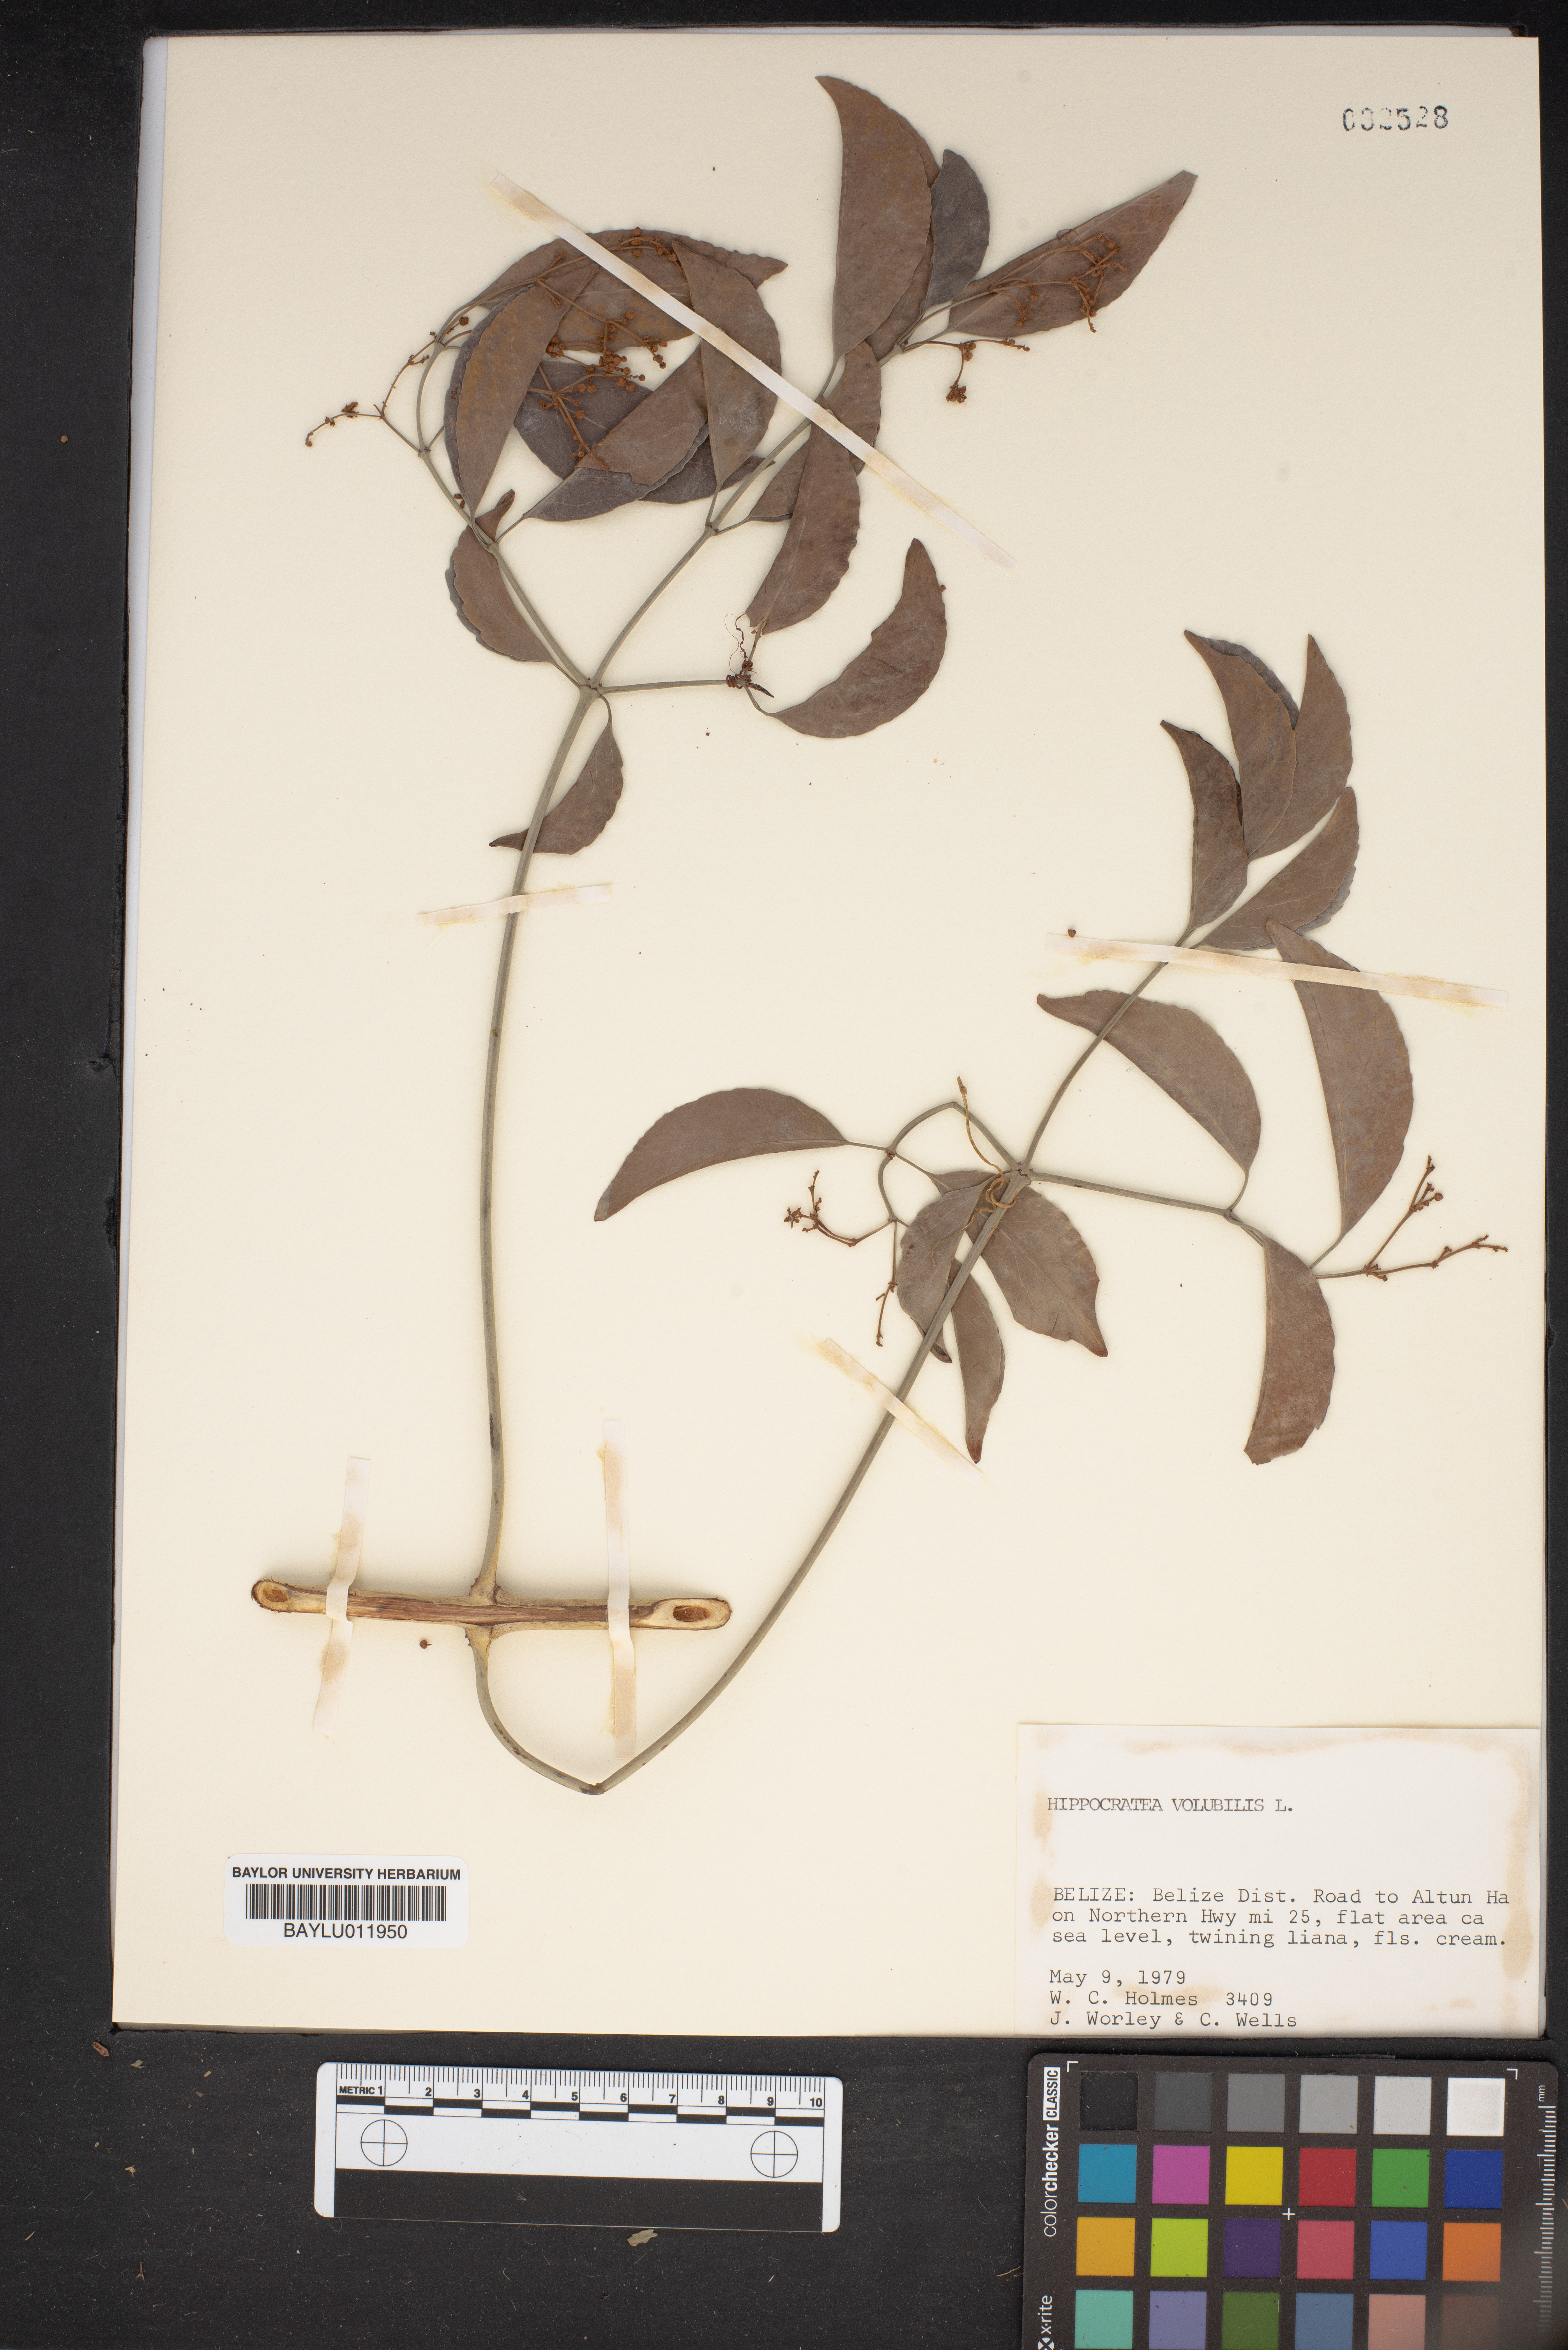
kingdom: Plantae
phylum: Tracheophyta
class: Magnoliopsida
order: Celastrales
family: Celastraceae
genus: Hippocratea
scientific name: Hippocratea volubilis
